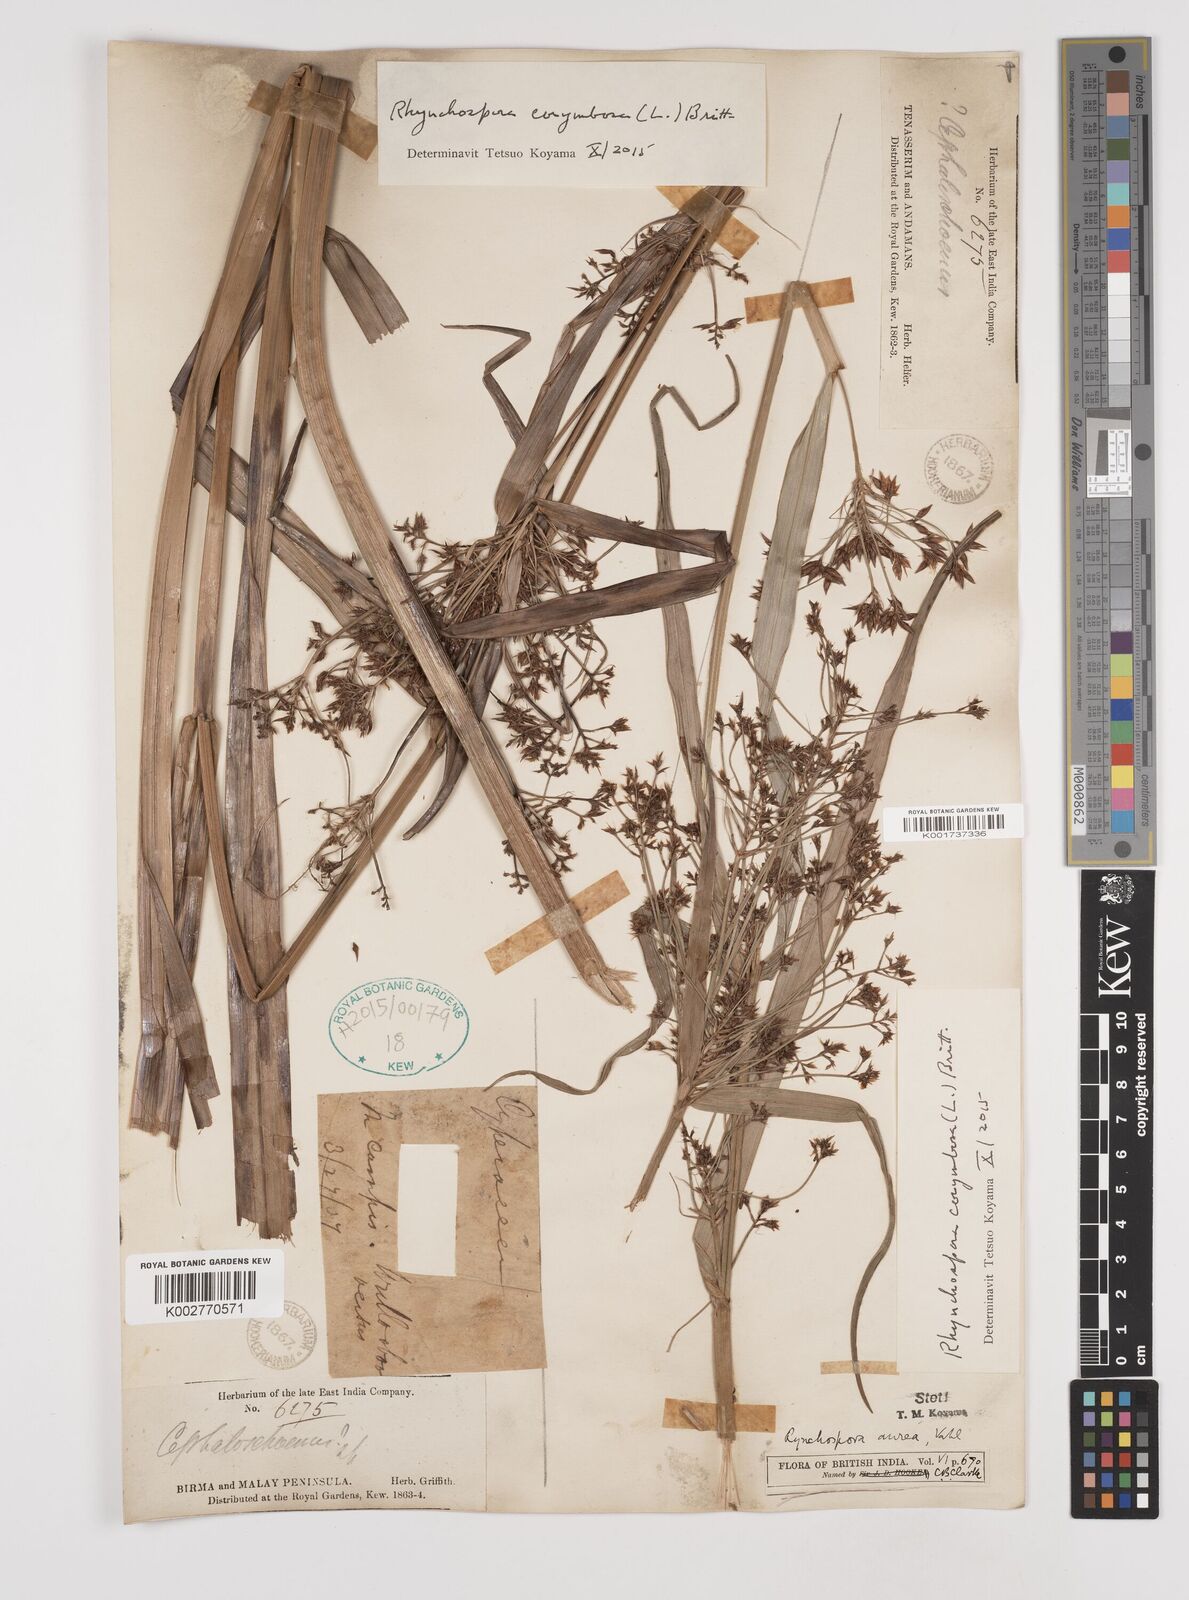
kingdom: Plantae
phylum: Tracheophyta
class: Liliopsida
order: Poales
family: Cyperaceae
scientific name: Cyperaceae
